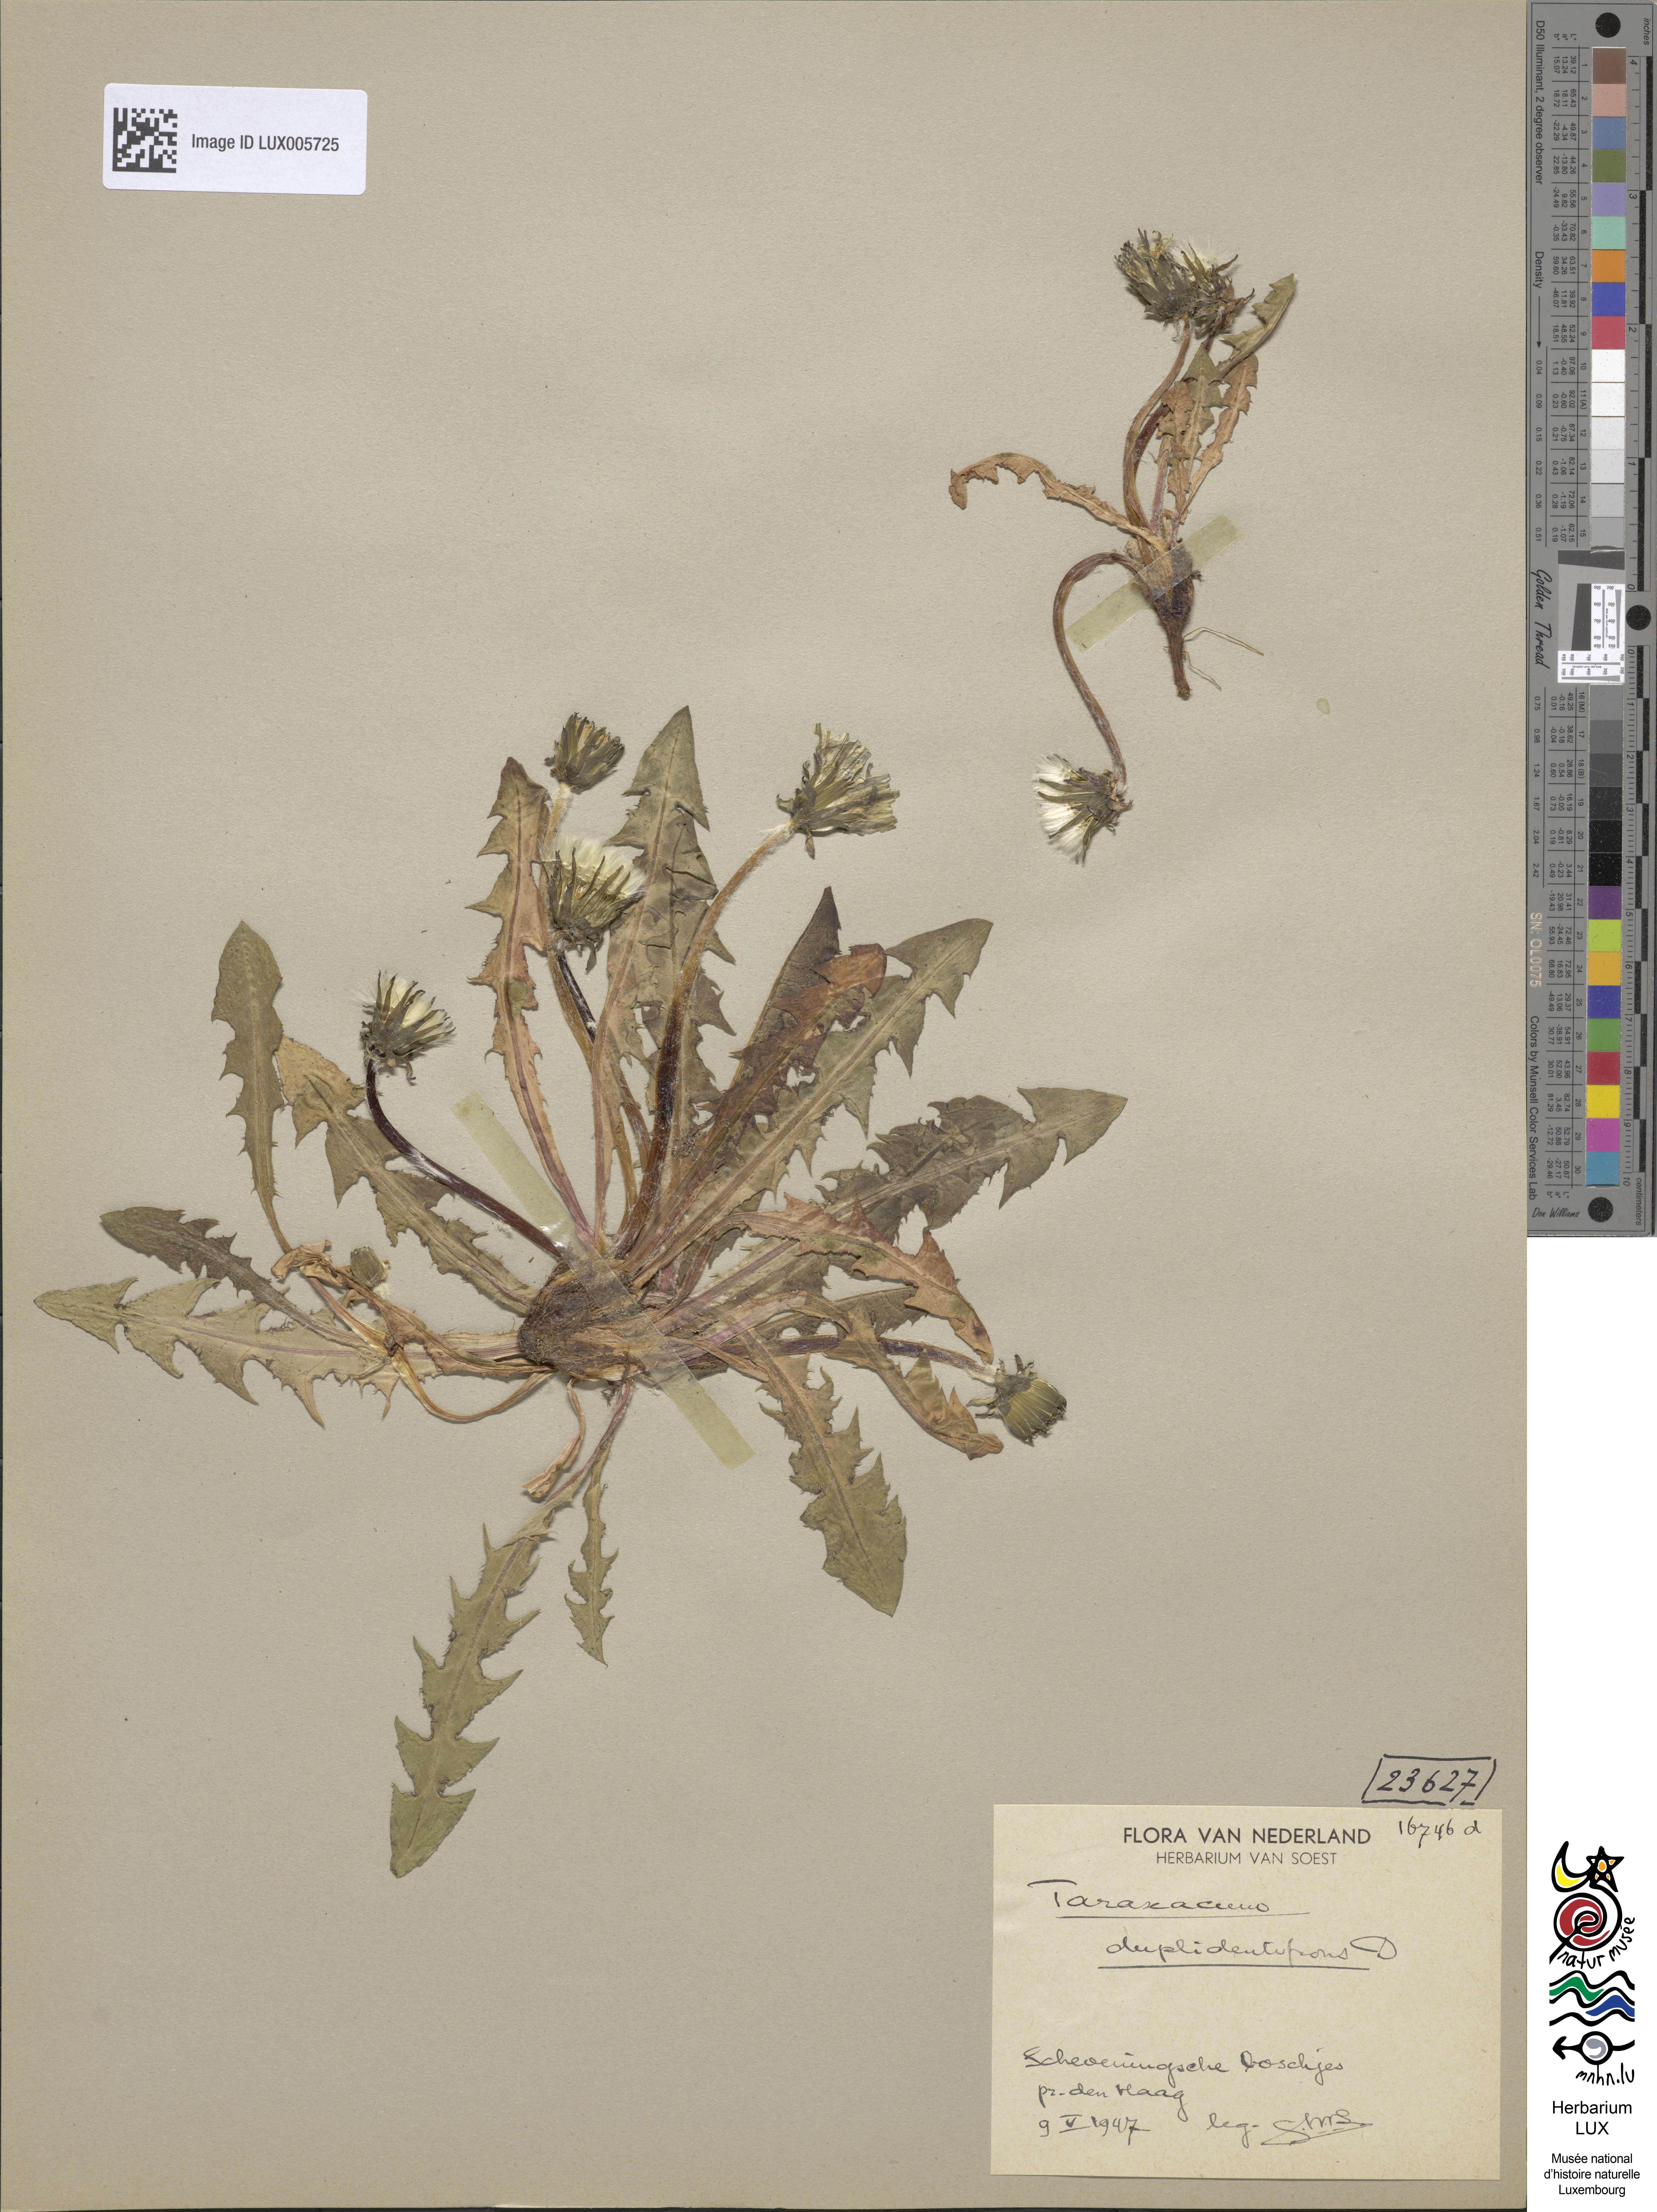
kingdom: Plantae
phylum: Tracheophyta
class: Magnoliopsida
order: Asterales
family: Asteraceae
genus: Taraxacum
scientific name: Taraxacum duplidentifrons
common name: Double-toothed dandelion
